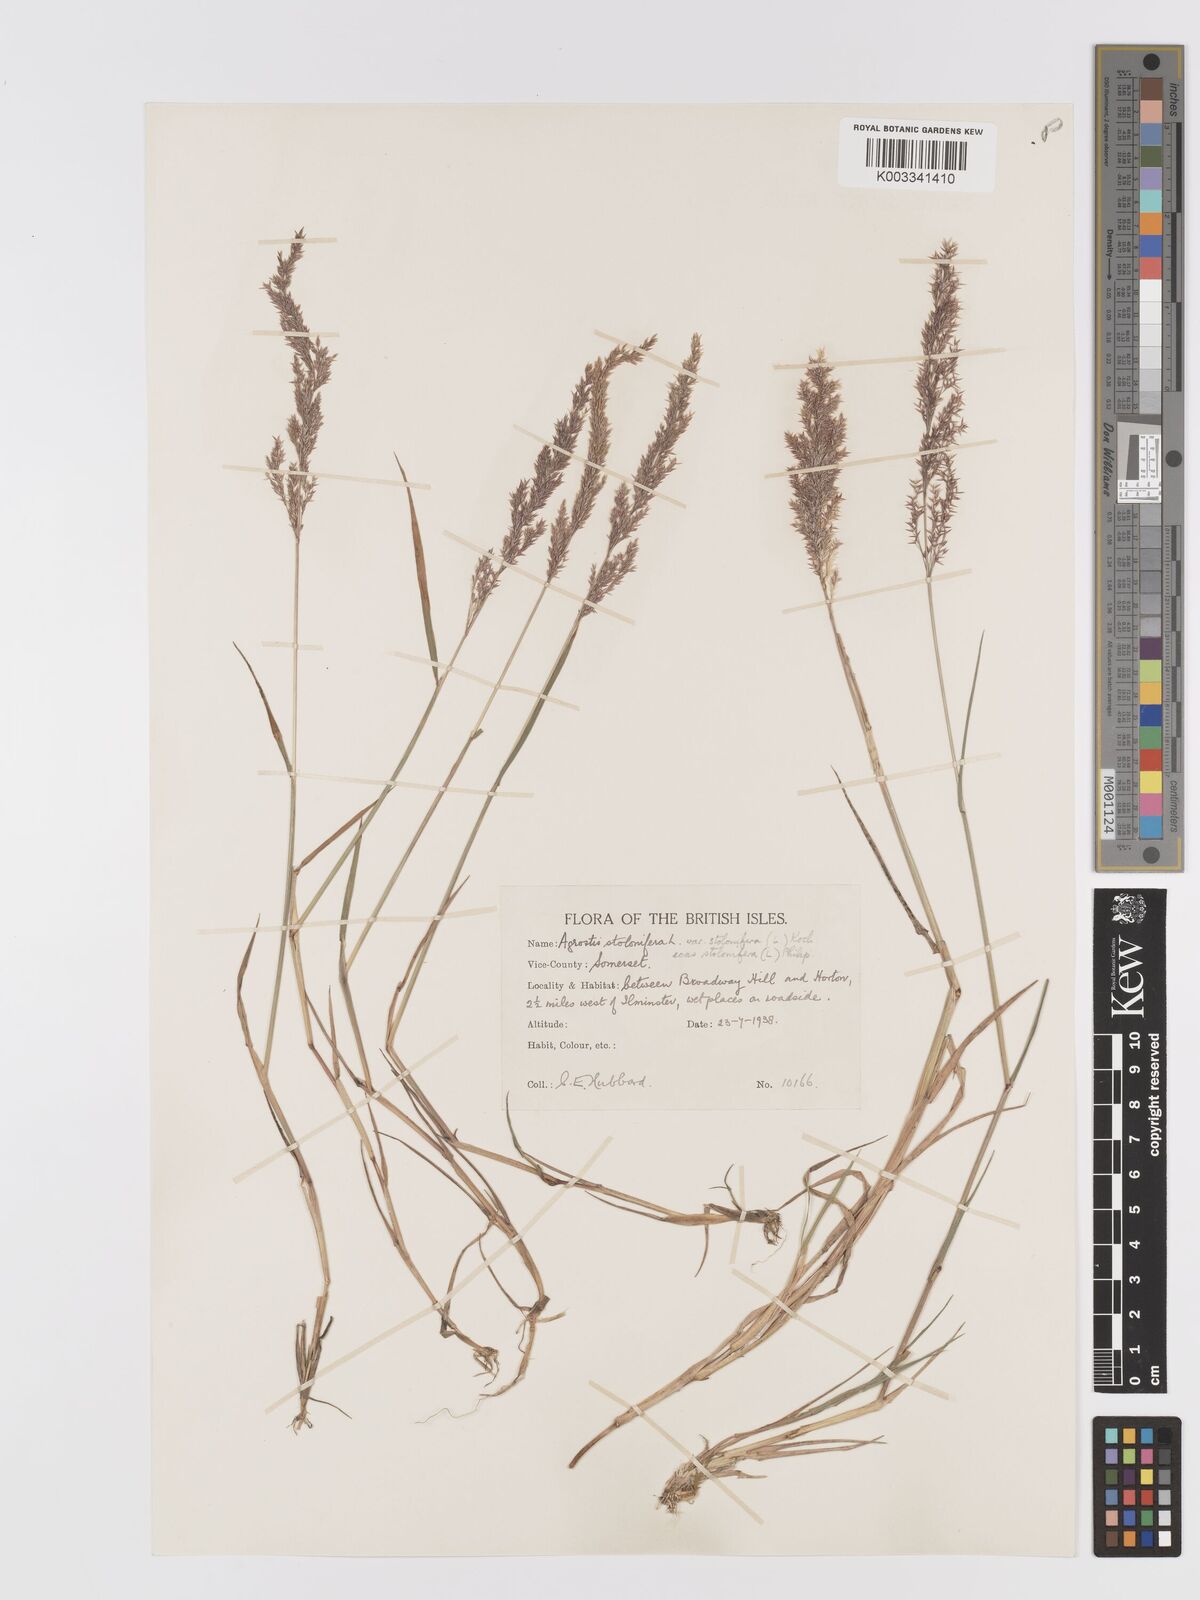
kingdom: Plantae
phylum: Tracheophyta
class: Liliopsida
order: Poales
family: Poaceae
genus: Agrostis
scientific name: Agrostis stolonifera
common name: Creeping bentgrass
